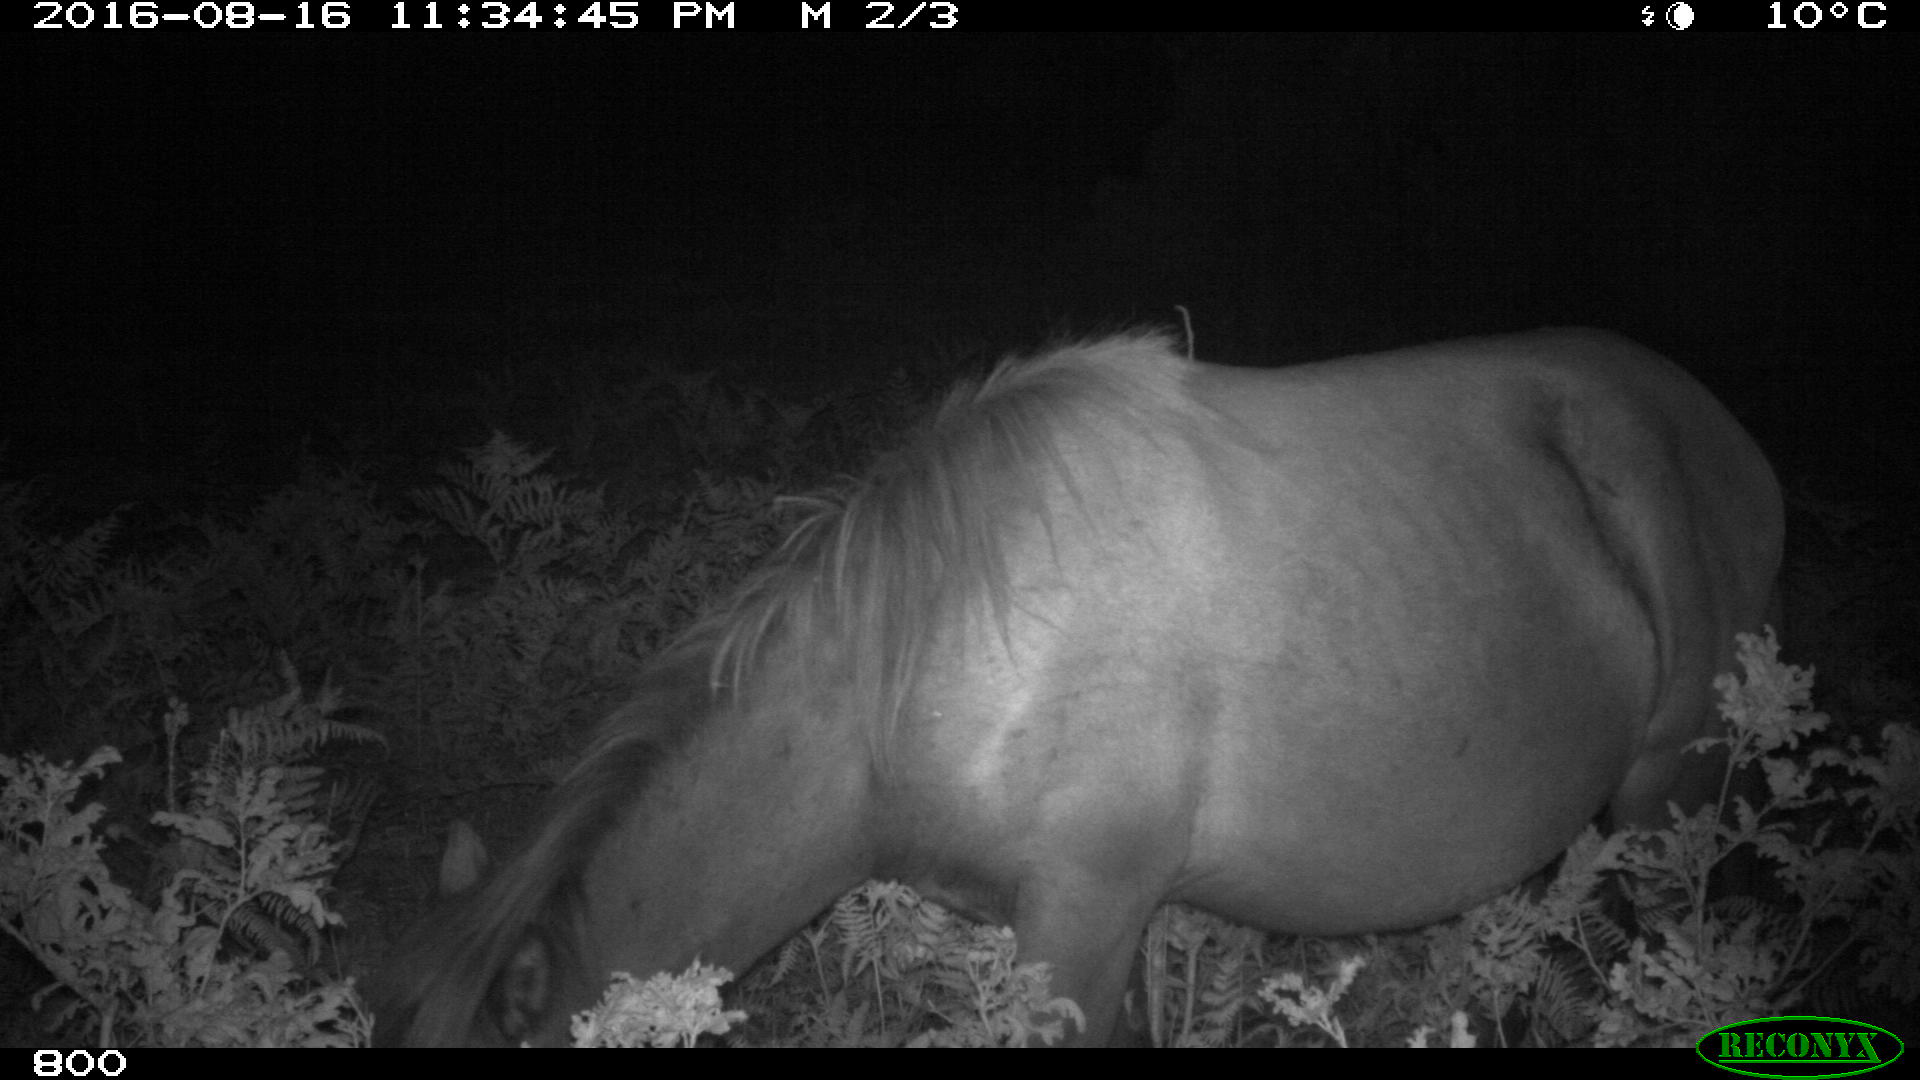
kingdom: Animalia
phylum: Chordata
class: Mammalia
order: Perissodactyla
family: Equidae
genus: Equus
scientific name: Equus caballus
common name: Horse
